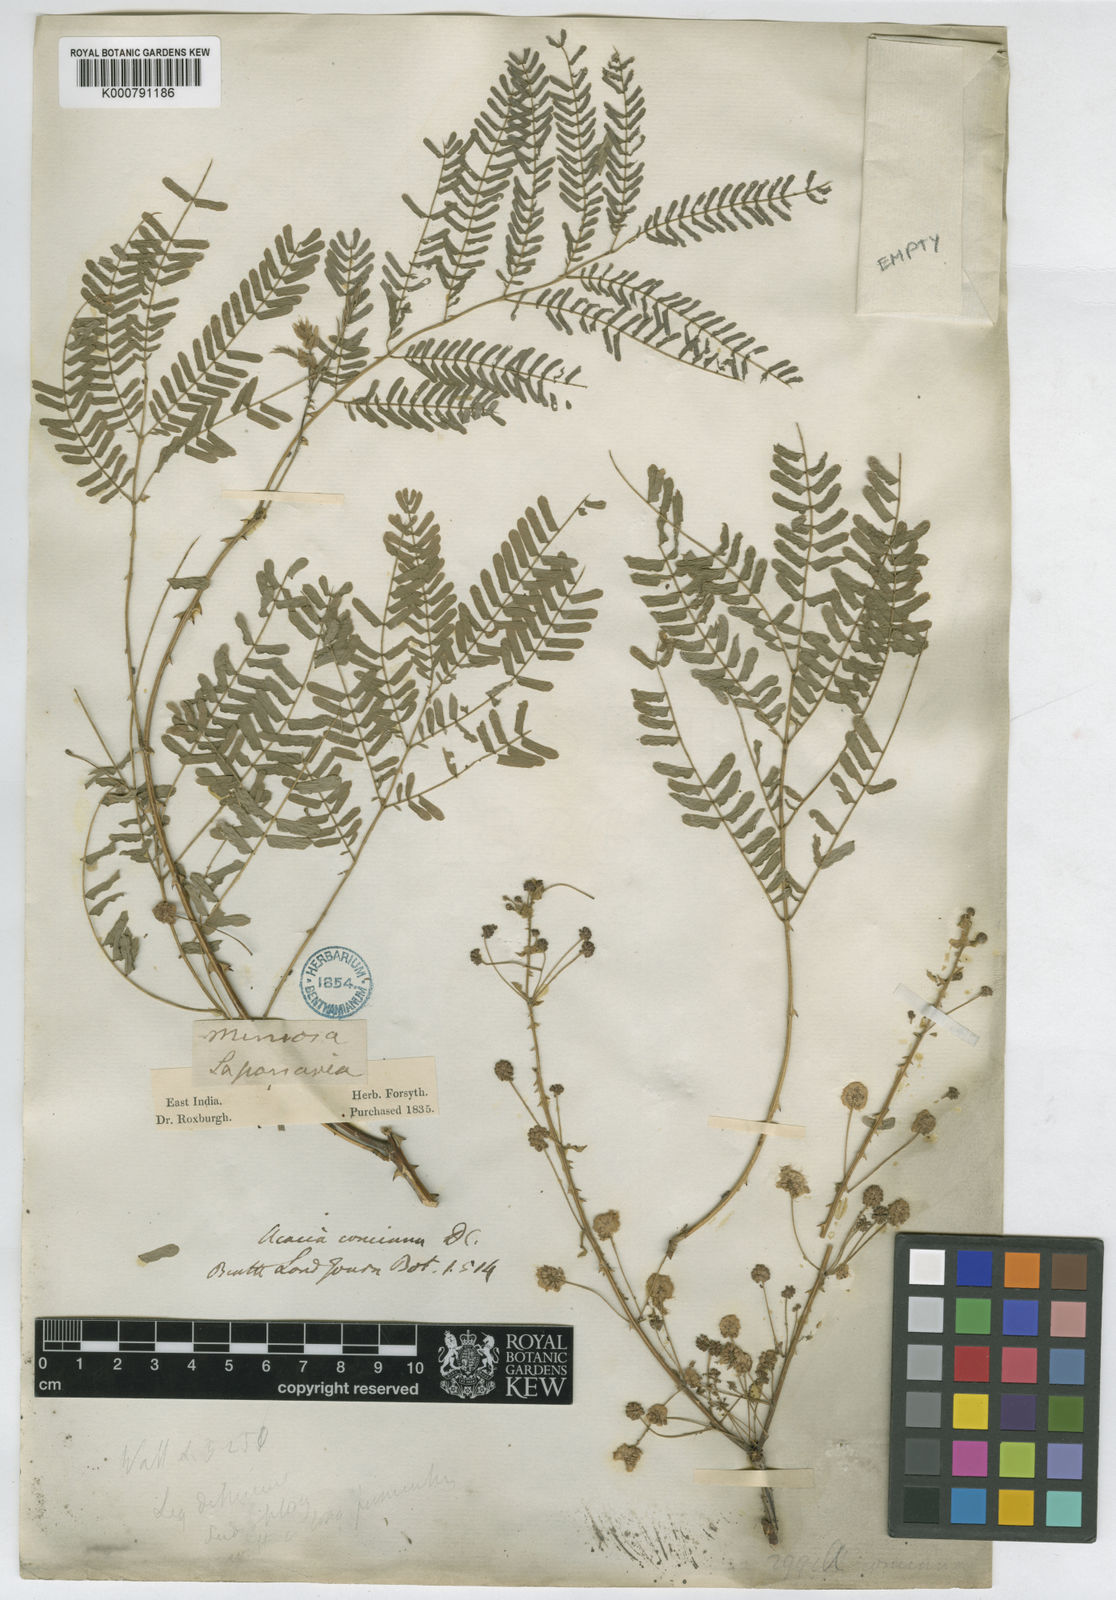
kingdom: Plantae
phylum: Tracheophyta
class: Magnoliopsida
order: Fabales
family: Fabaceae
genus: Senegalia
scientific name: Senegalia rugata
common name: Soap-pod
